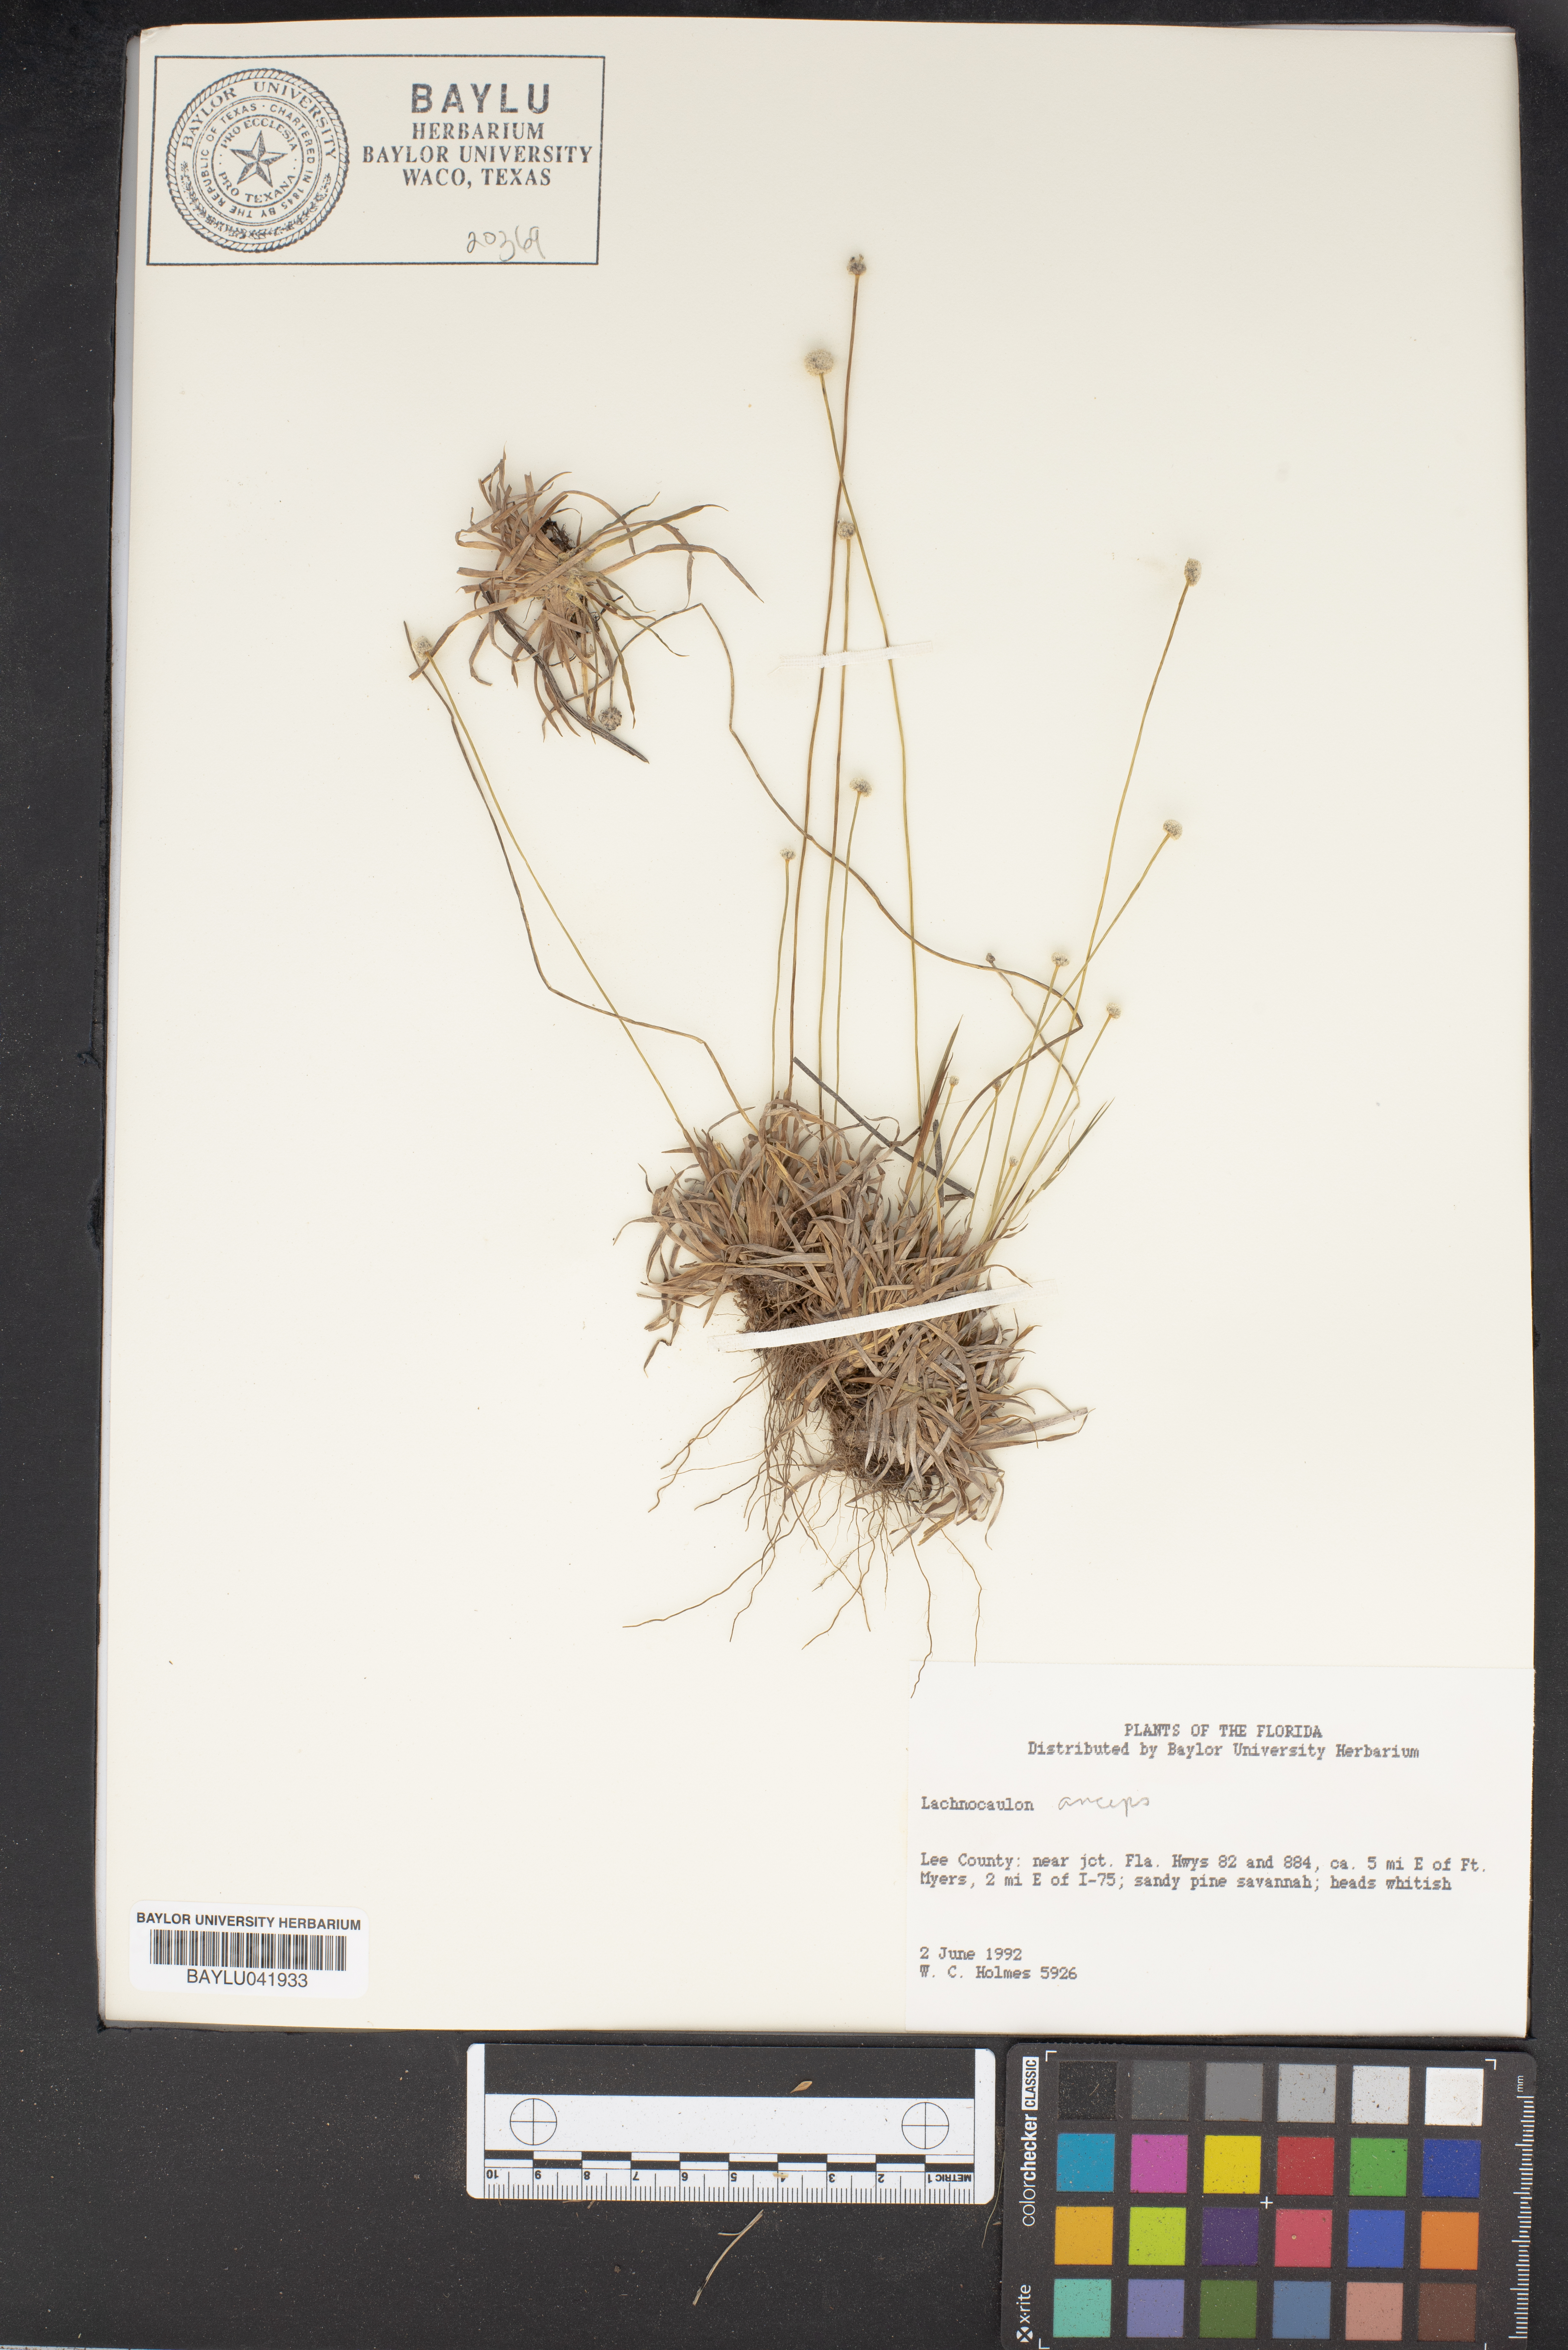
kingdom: Plantae
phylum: Tracheophyta
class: Liliopsida
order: Poales
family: Eriocaulaceae
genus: Paepalanthus
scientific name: Paepalanthus anceps
